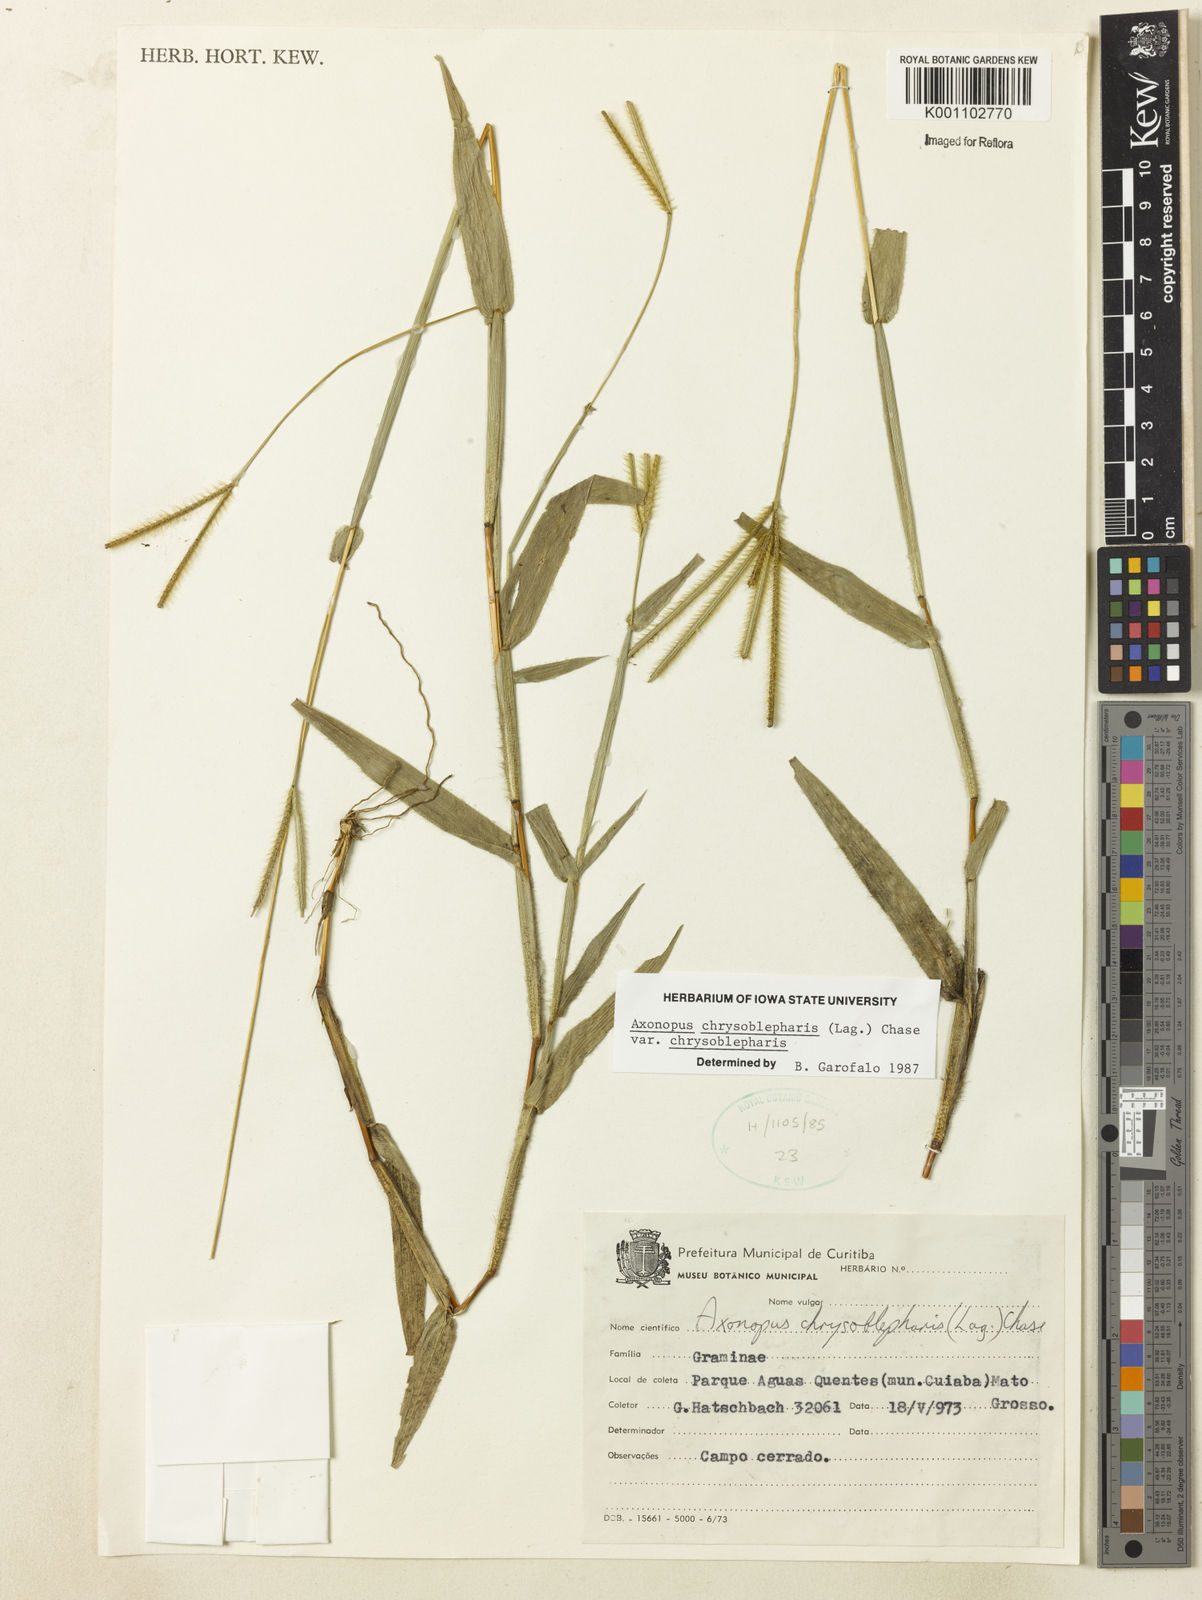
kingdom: Plantae
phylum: Tracheophyta
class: Liliopsida
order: Poales
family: Poaceae
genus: Axonopus
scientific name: Axonopus aureus
